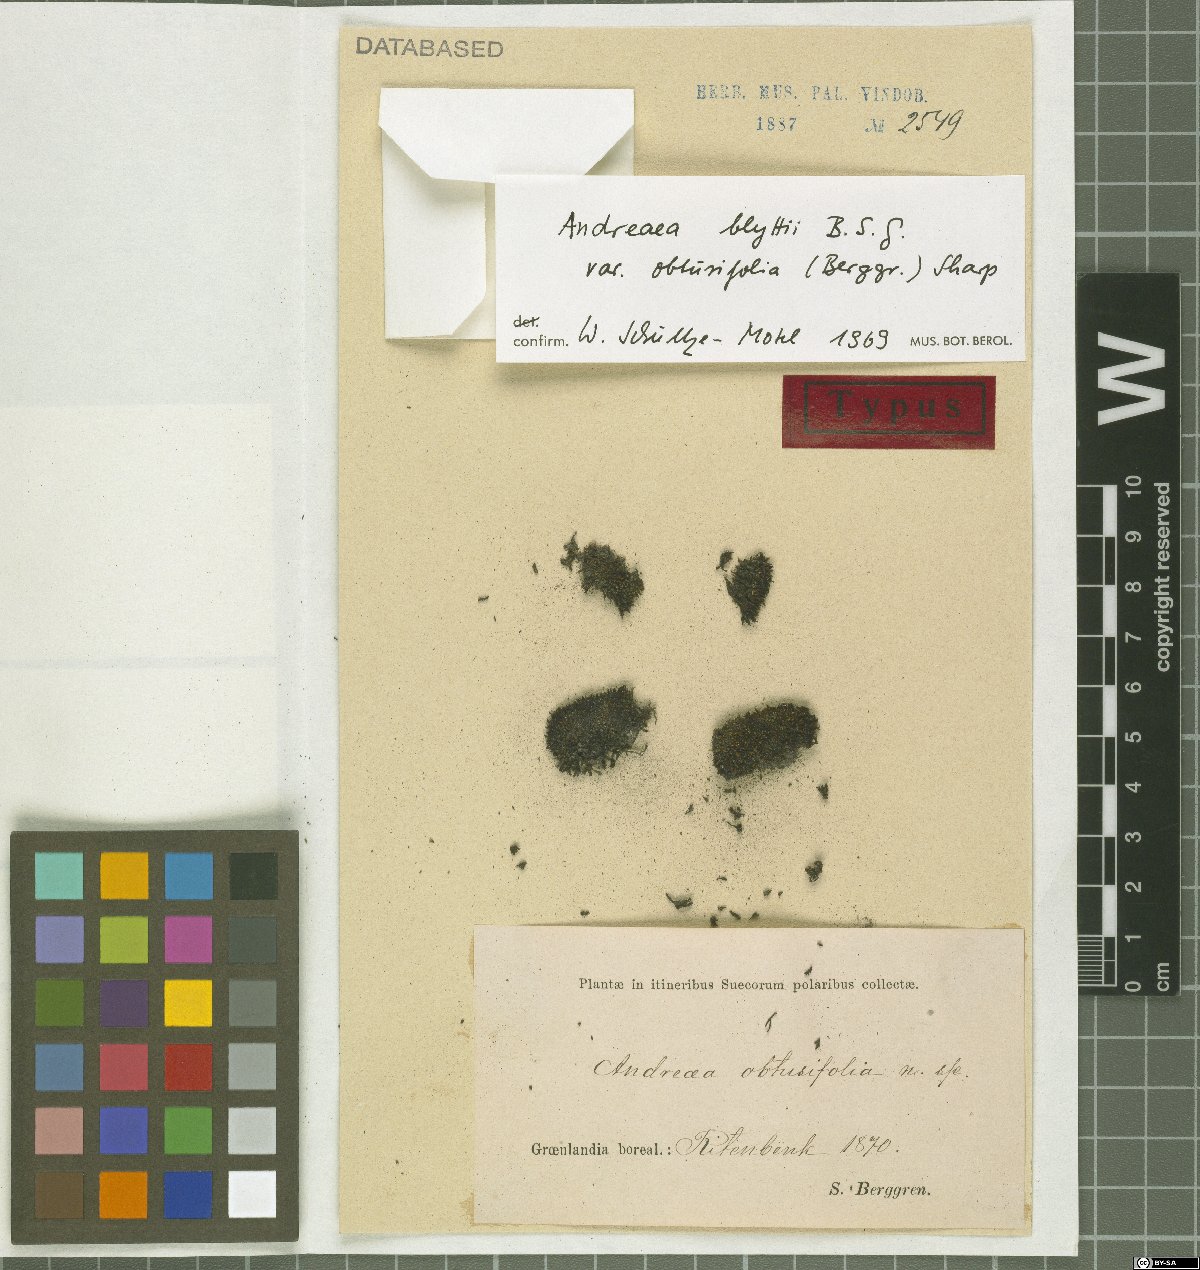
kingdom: Plantae
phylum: Bryophyta
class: Andreaeopsida
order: Andreaeales
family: Andreaeaceae
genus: Andreaea
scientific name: Andreaea heinemannii
